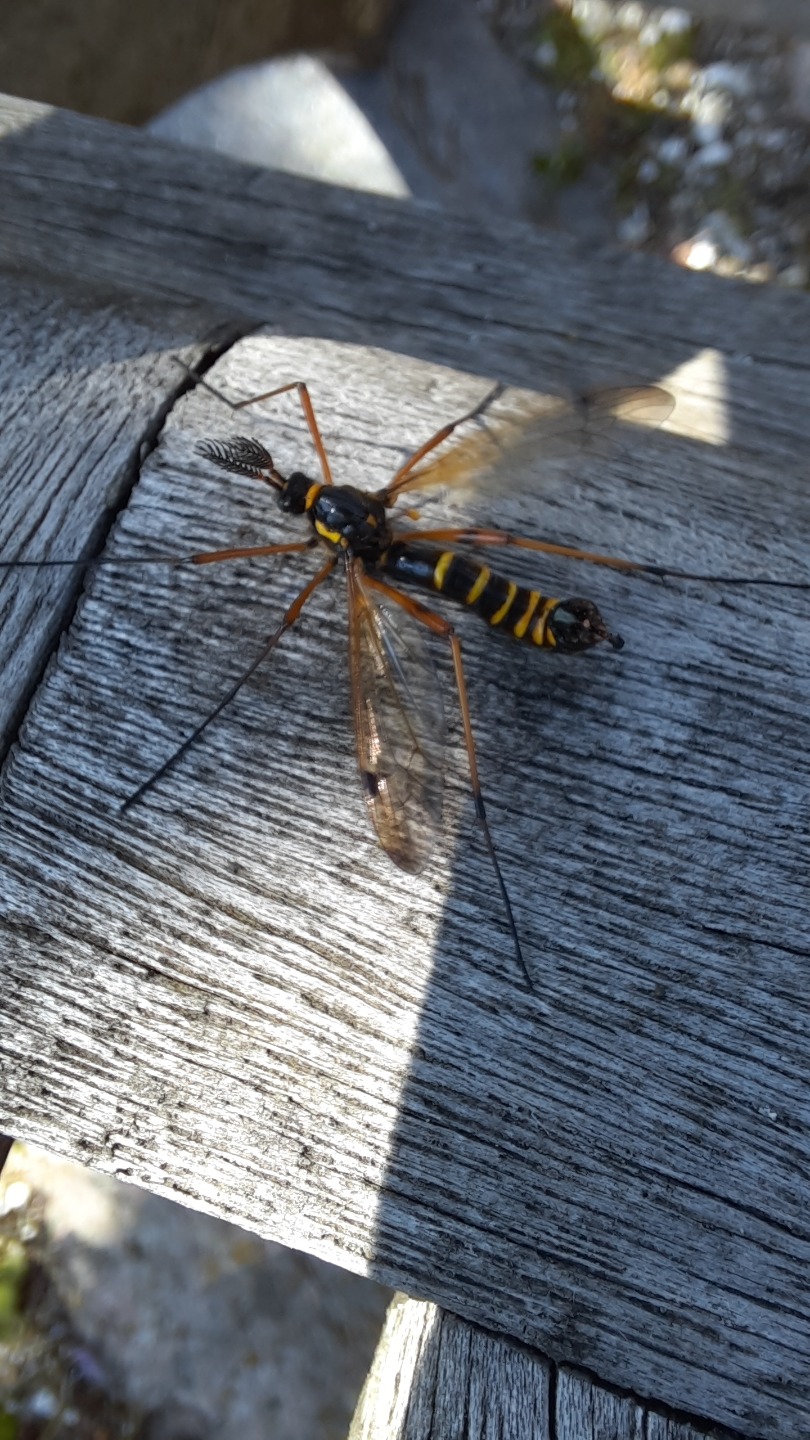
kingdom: Animalia
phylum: Arthropoda
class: Insecta
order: Diptera
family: Tipulidae
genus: Ctenophora
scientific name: Ctenophora flaveolata
